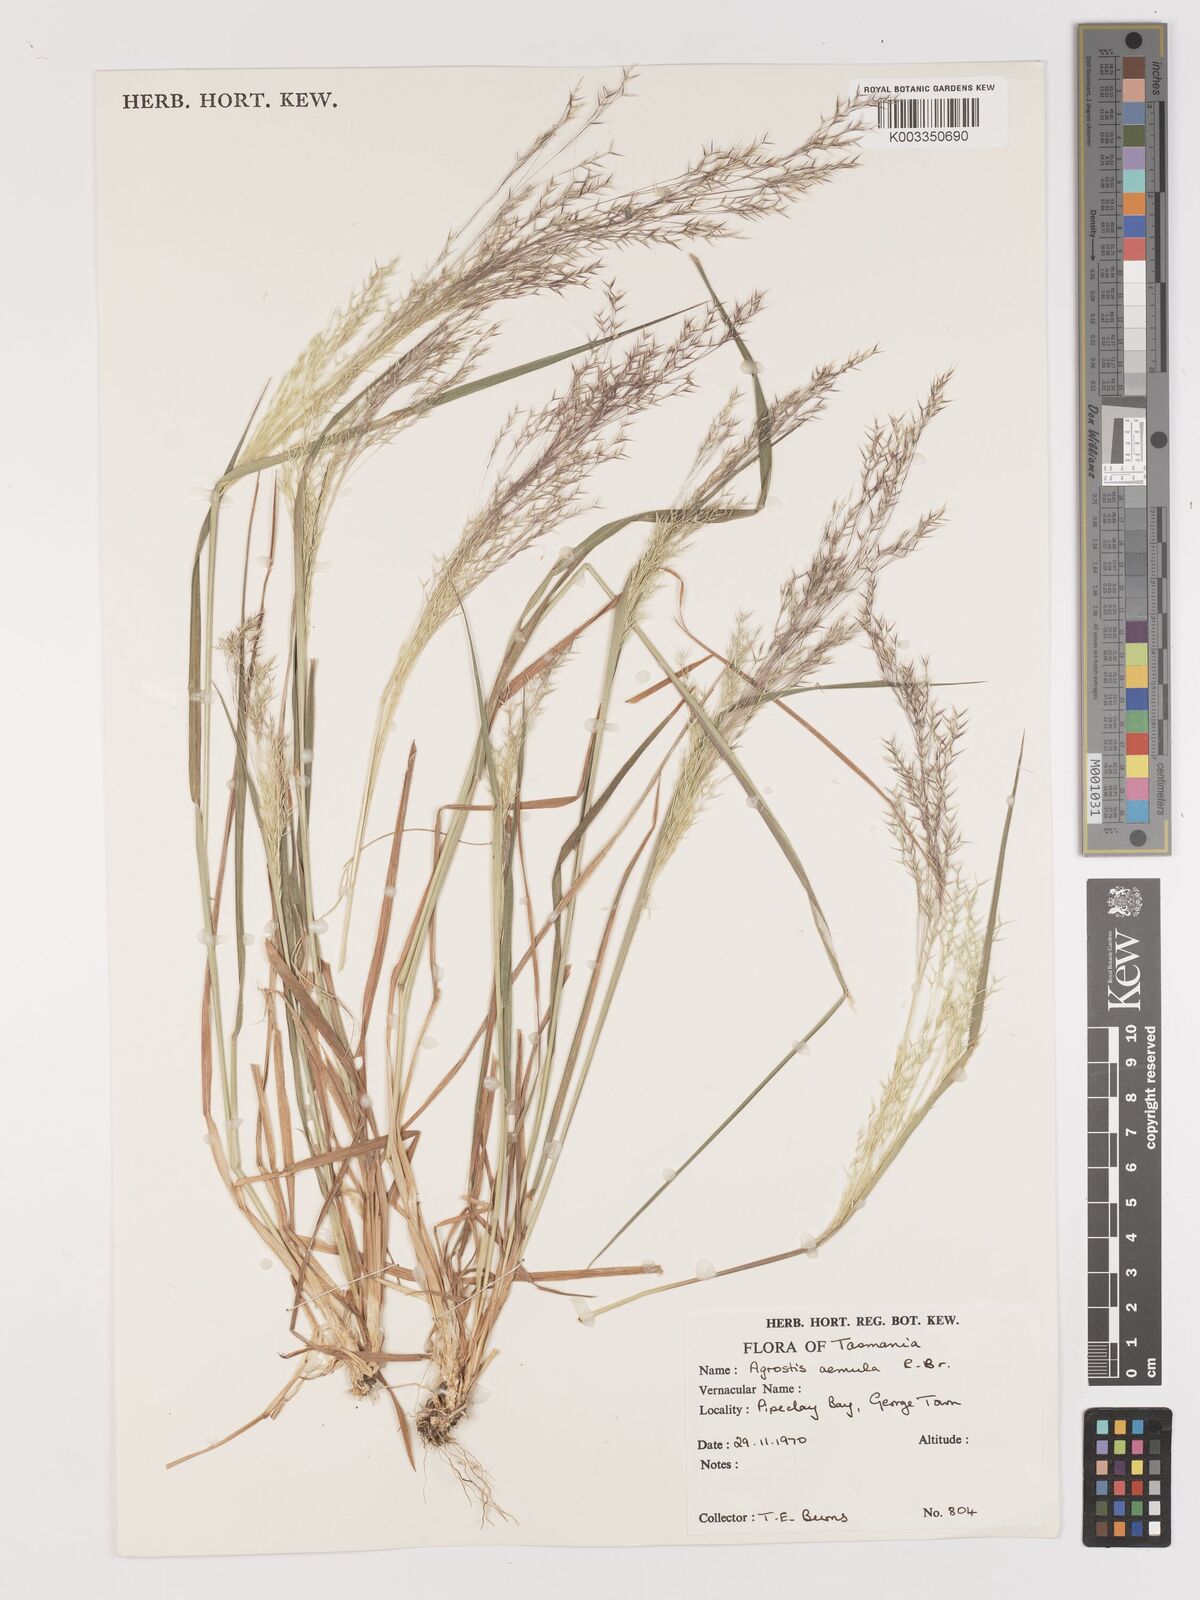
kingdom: Plantae
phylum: Tracheophyta
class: Liliopsida
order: Poales
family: Poaceae
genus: Lachnagrostis
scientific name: Lachnagrostis aemula
